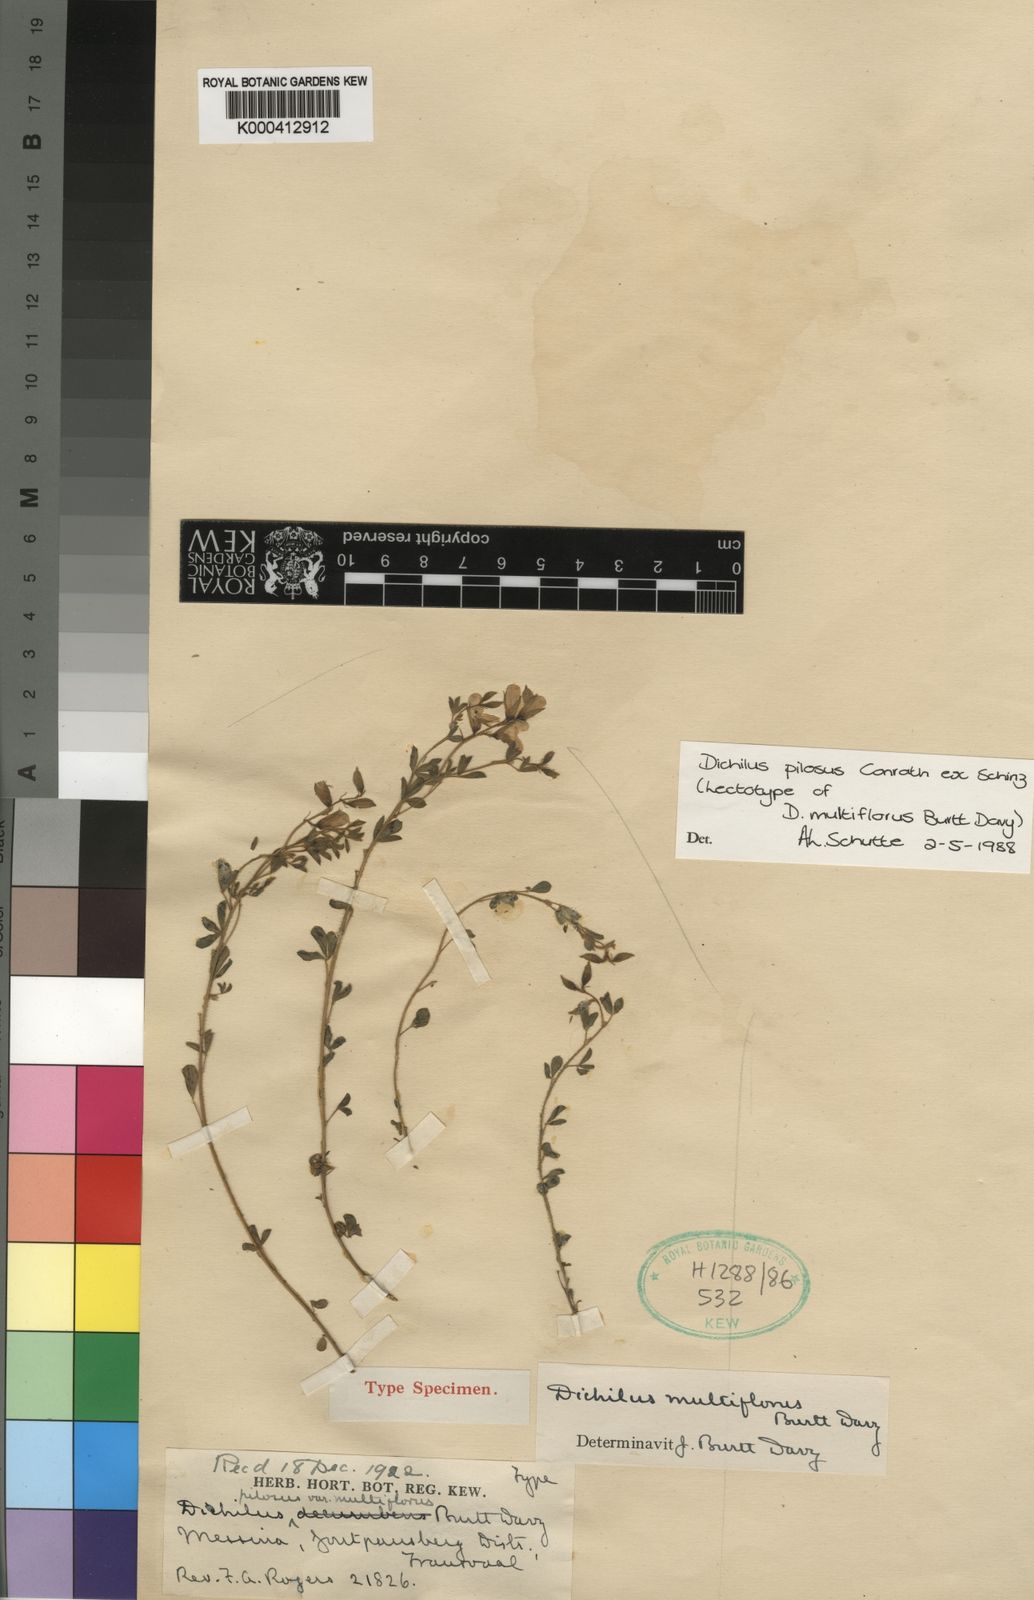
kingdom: Plantae
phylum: Tracheophyta
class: Magnoliopsida
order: Fabales
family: Fabaceae
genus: Dichilus
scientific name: Dichilus pilosus
